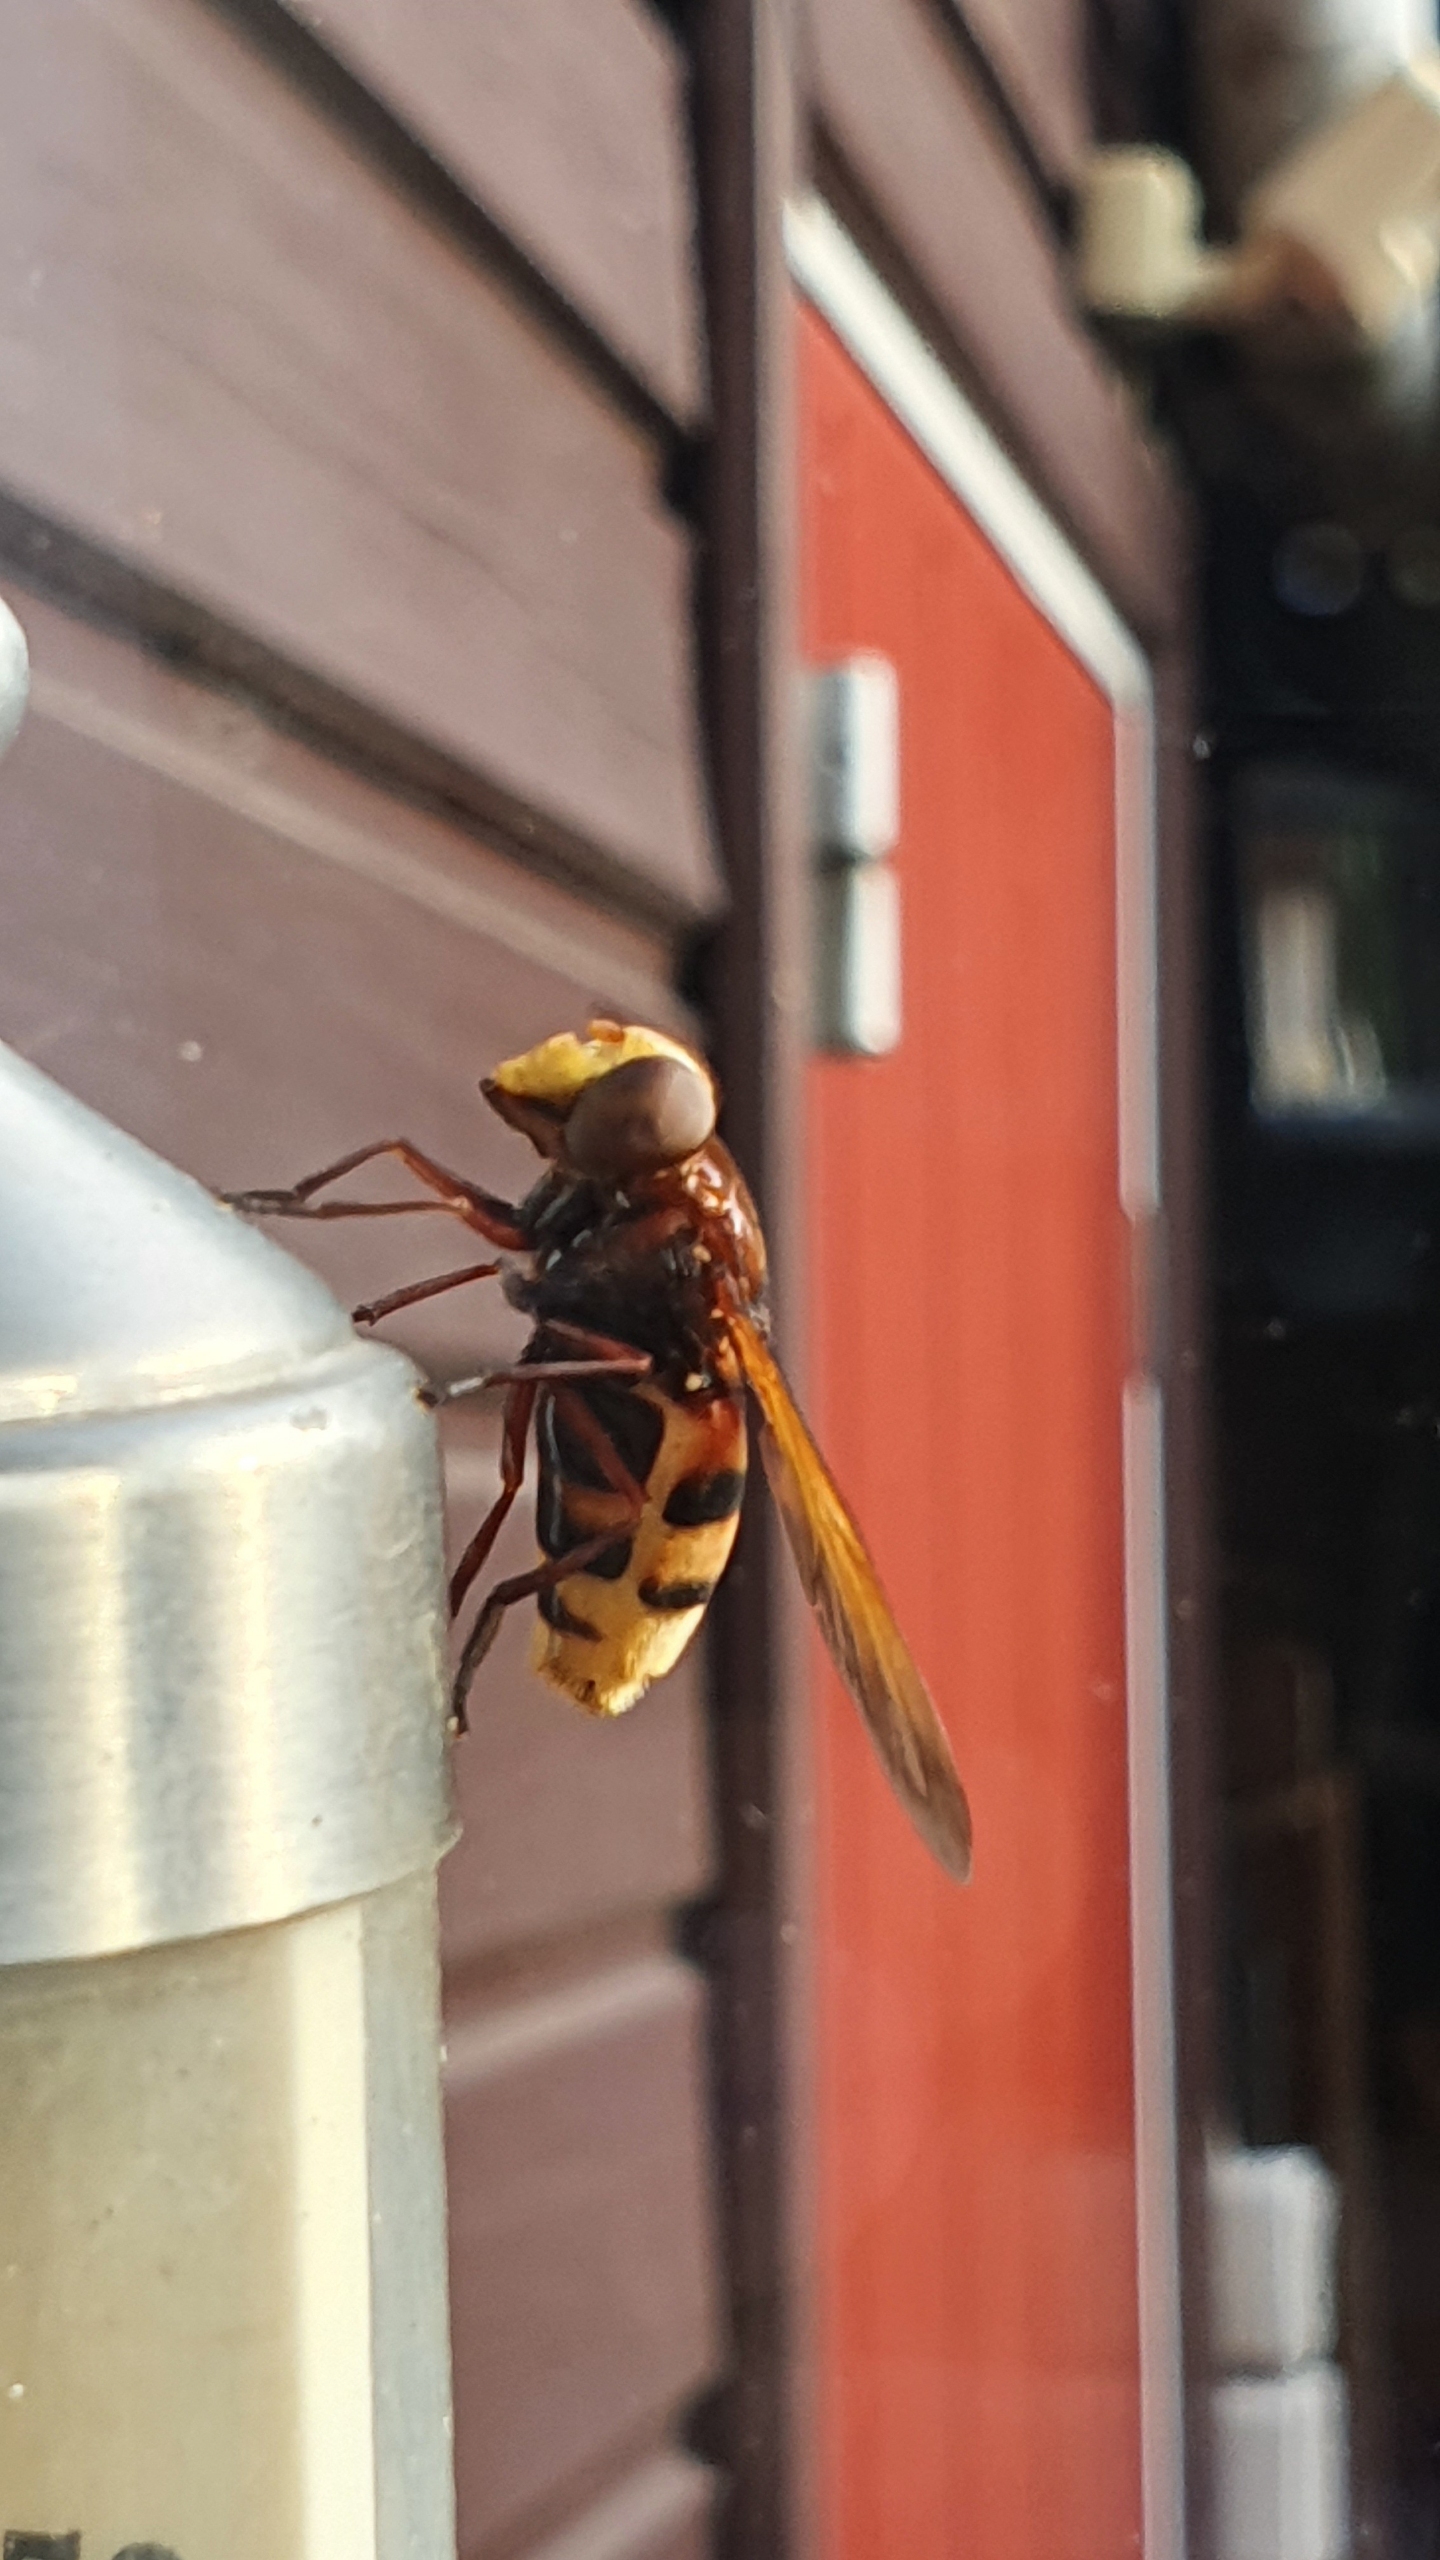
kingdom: Animalia
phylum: Arthropoda
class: Insecta
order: Diptera
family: Syrphidae
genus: Volucella
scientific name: Volucella zonaria
